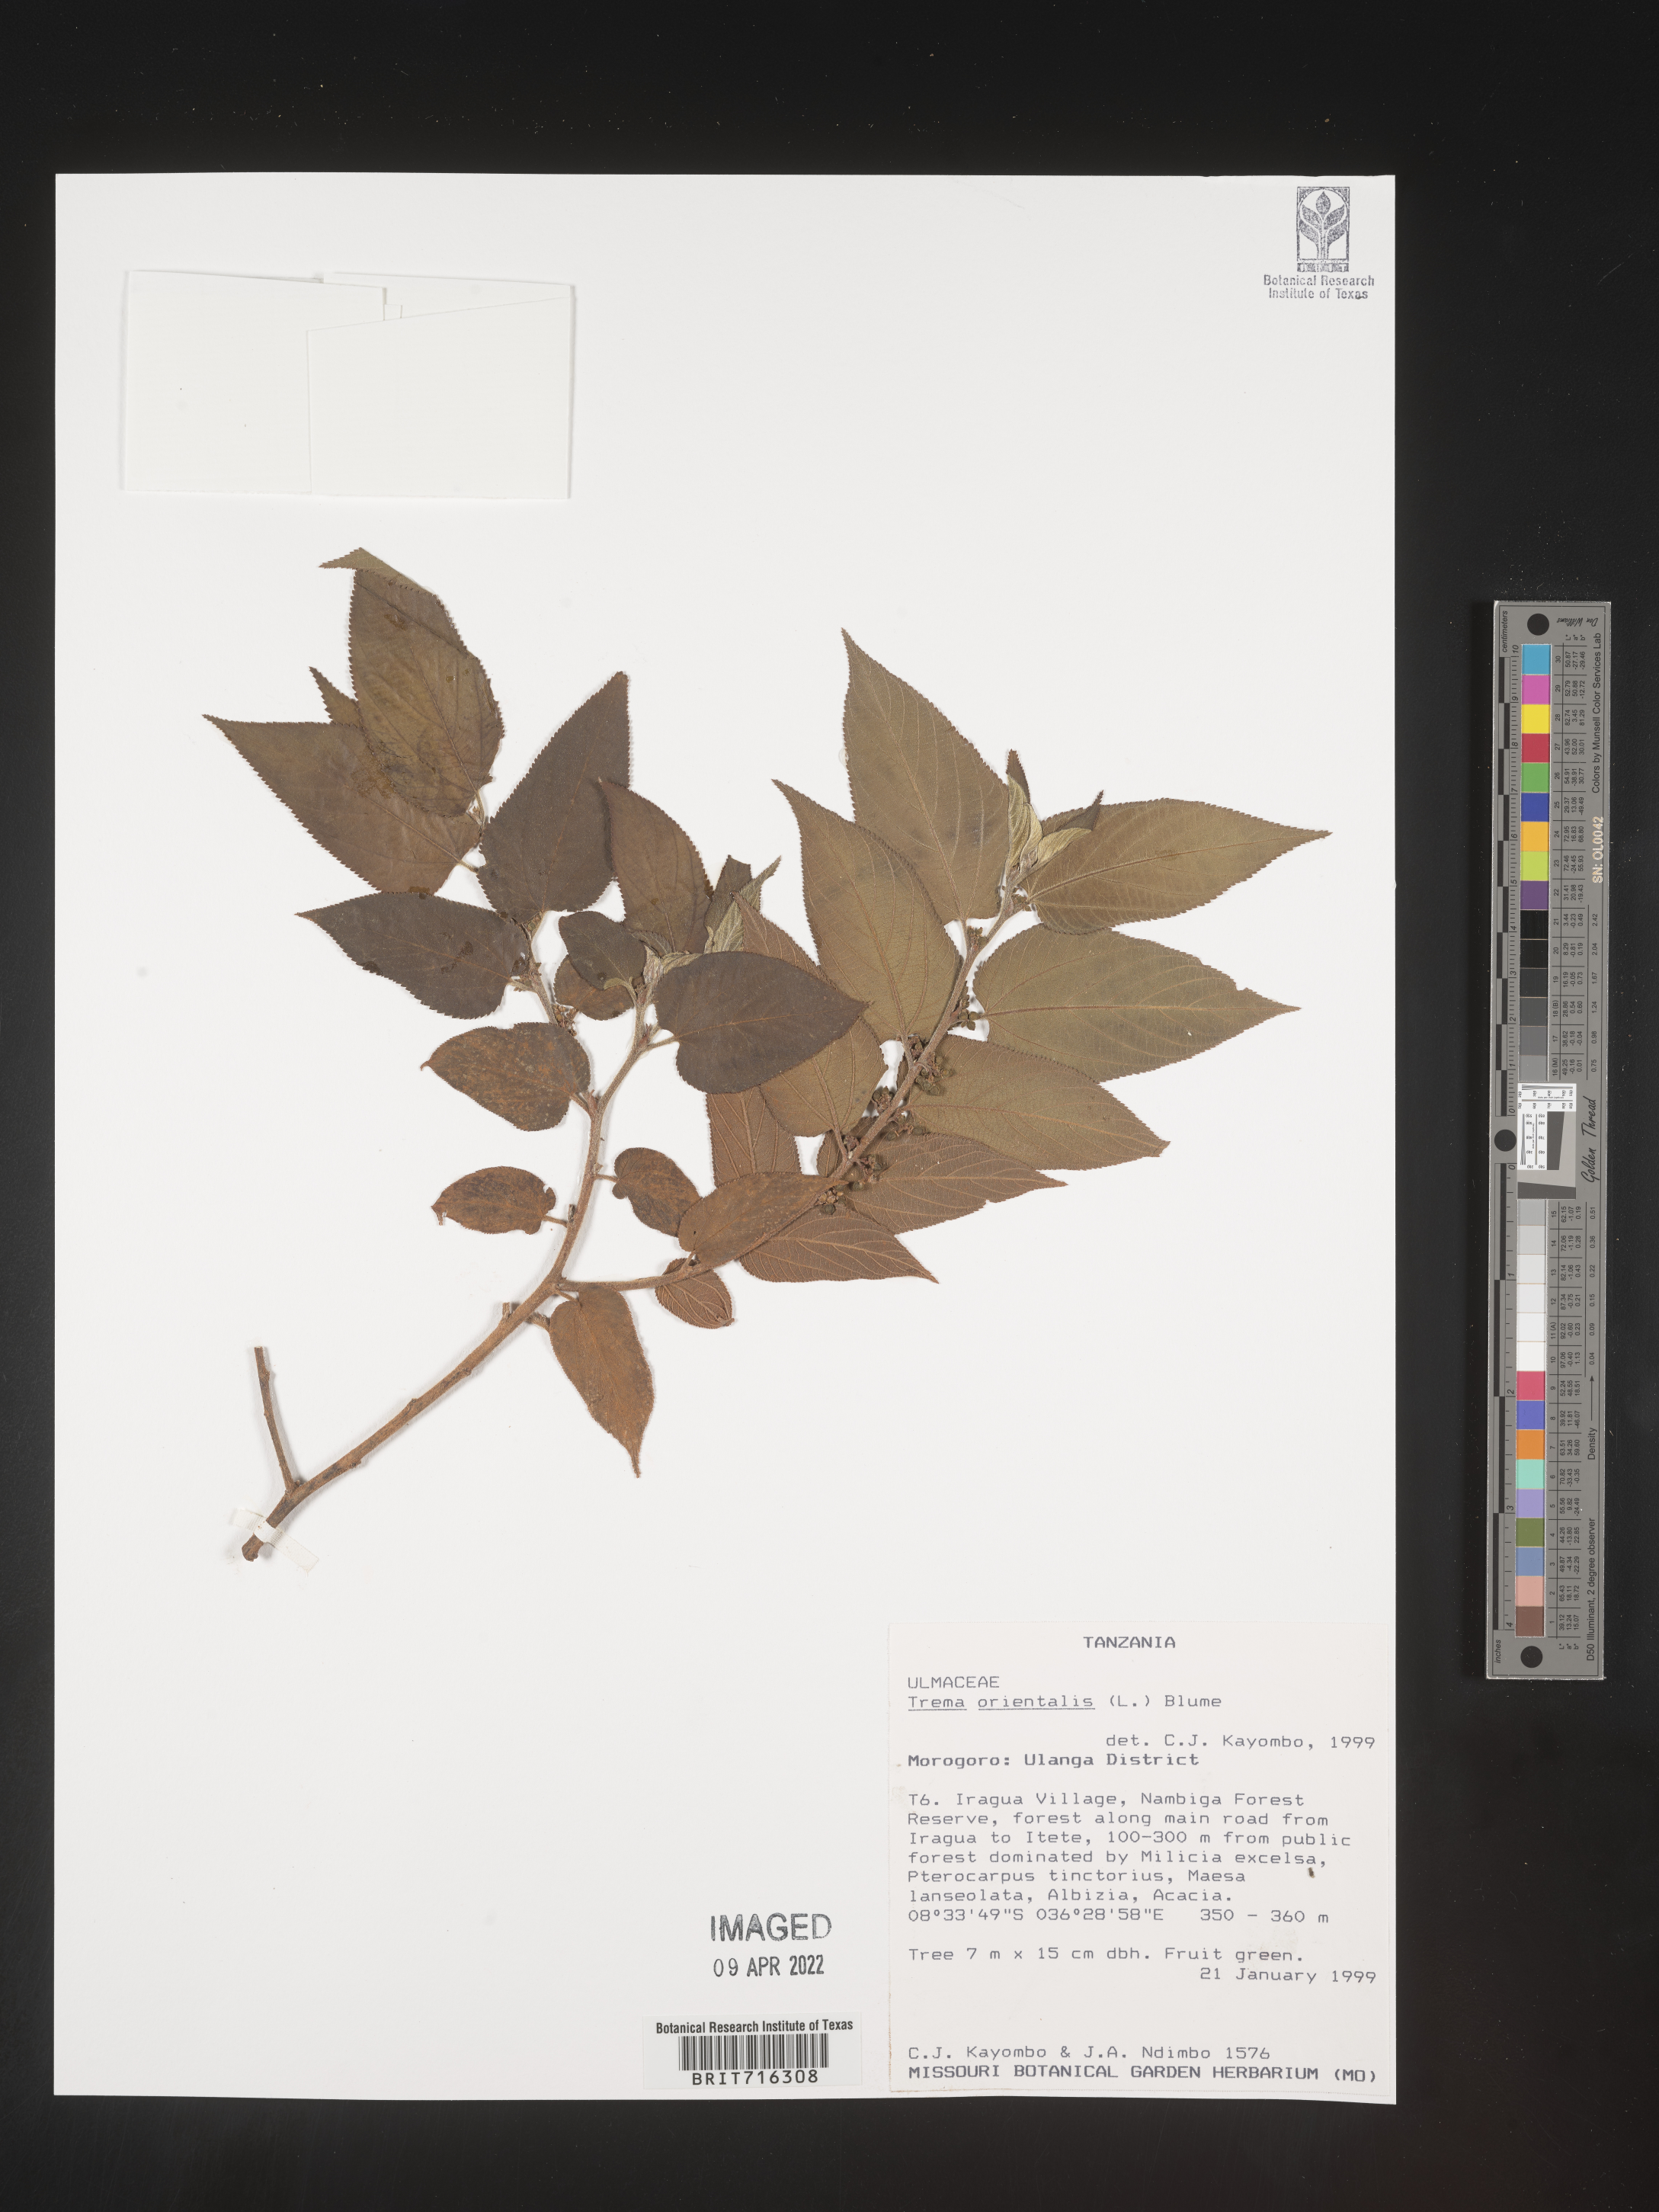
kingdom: Plantae
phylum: Tracheophyta
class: Magnoliopsida
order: Rosales
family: Cannabaceae
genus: Trema
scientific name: Trema
